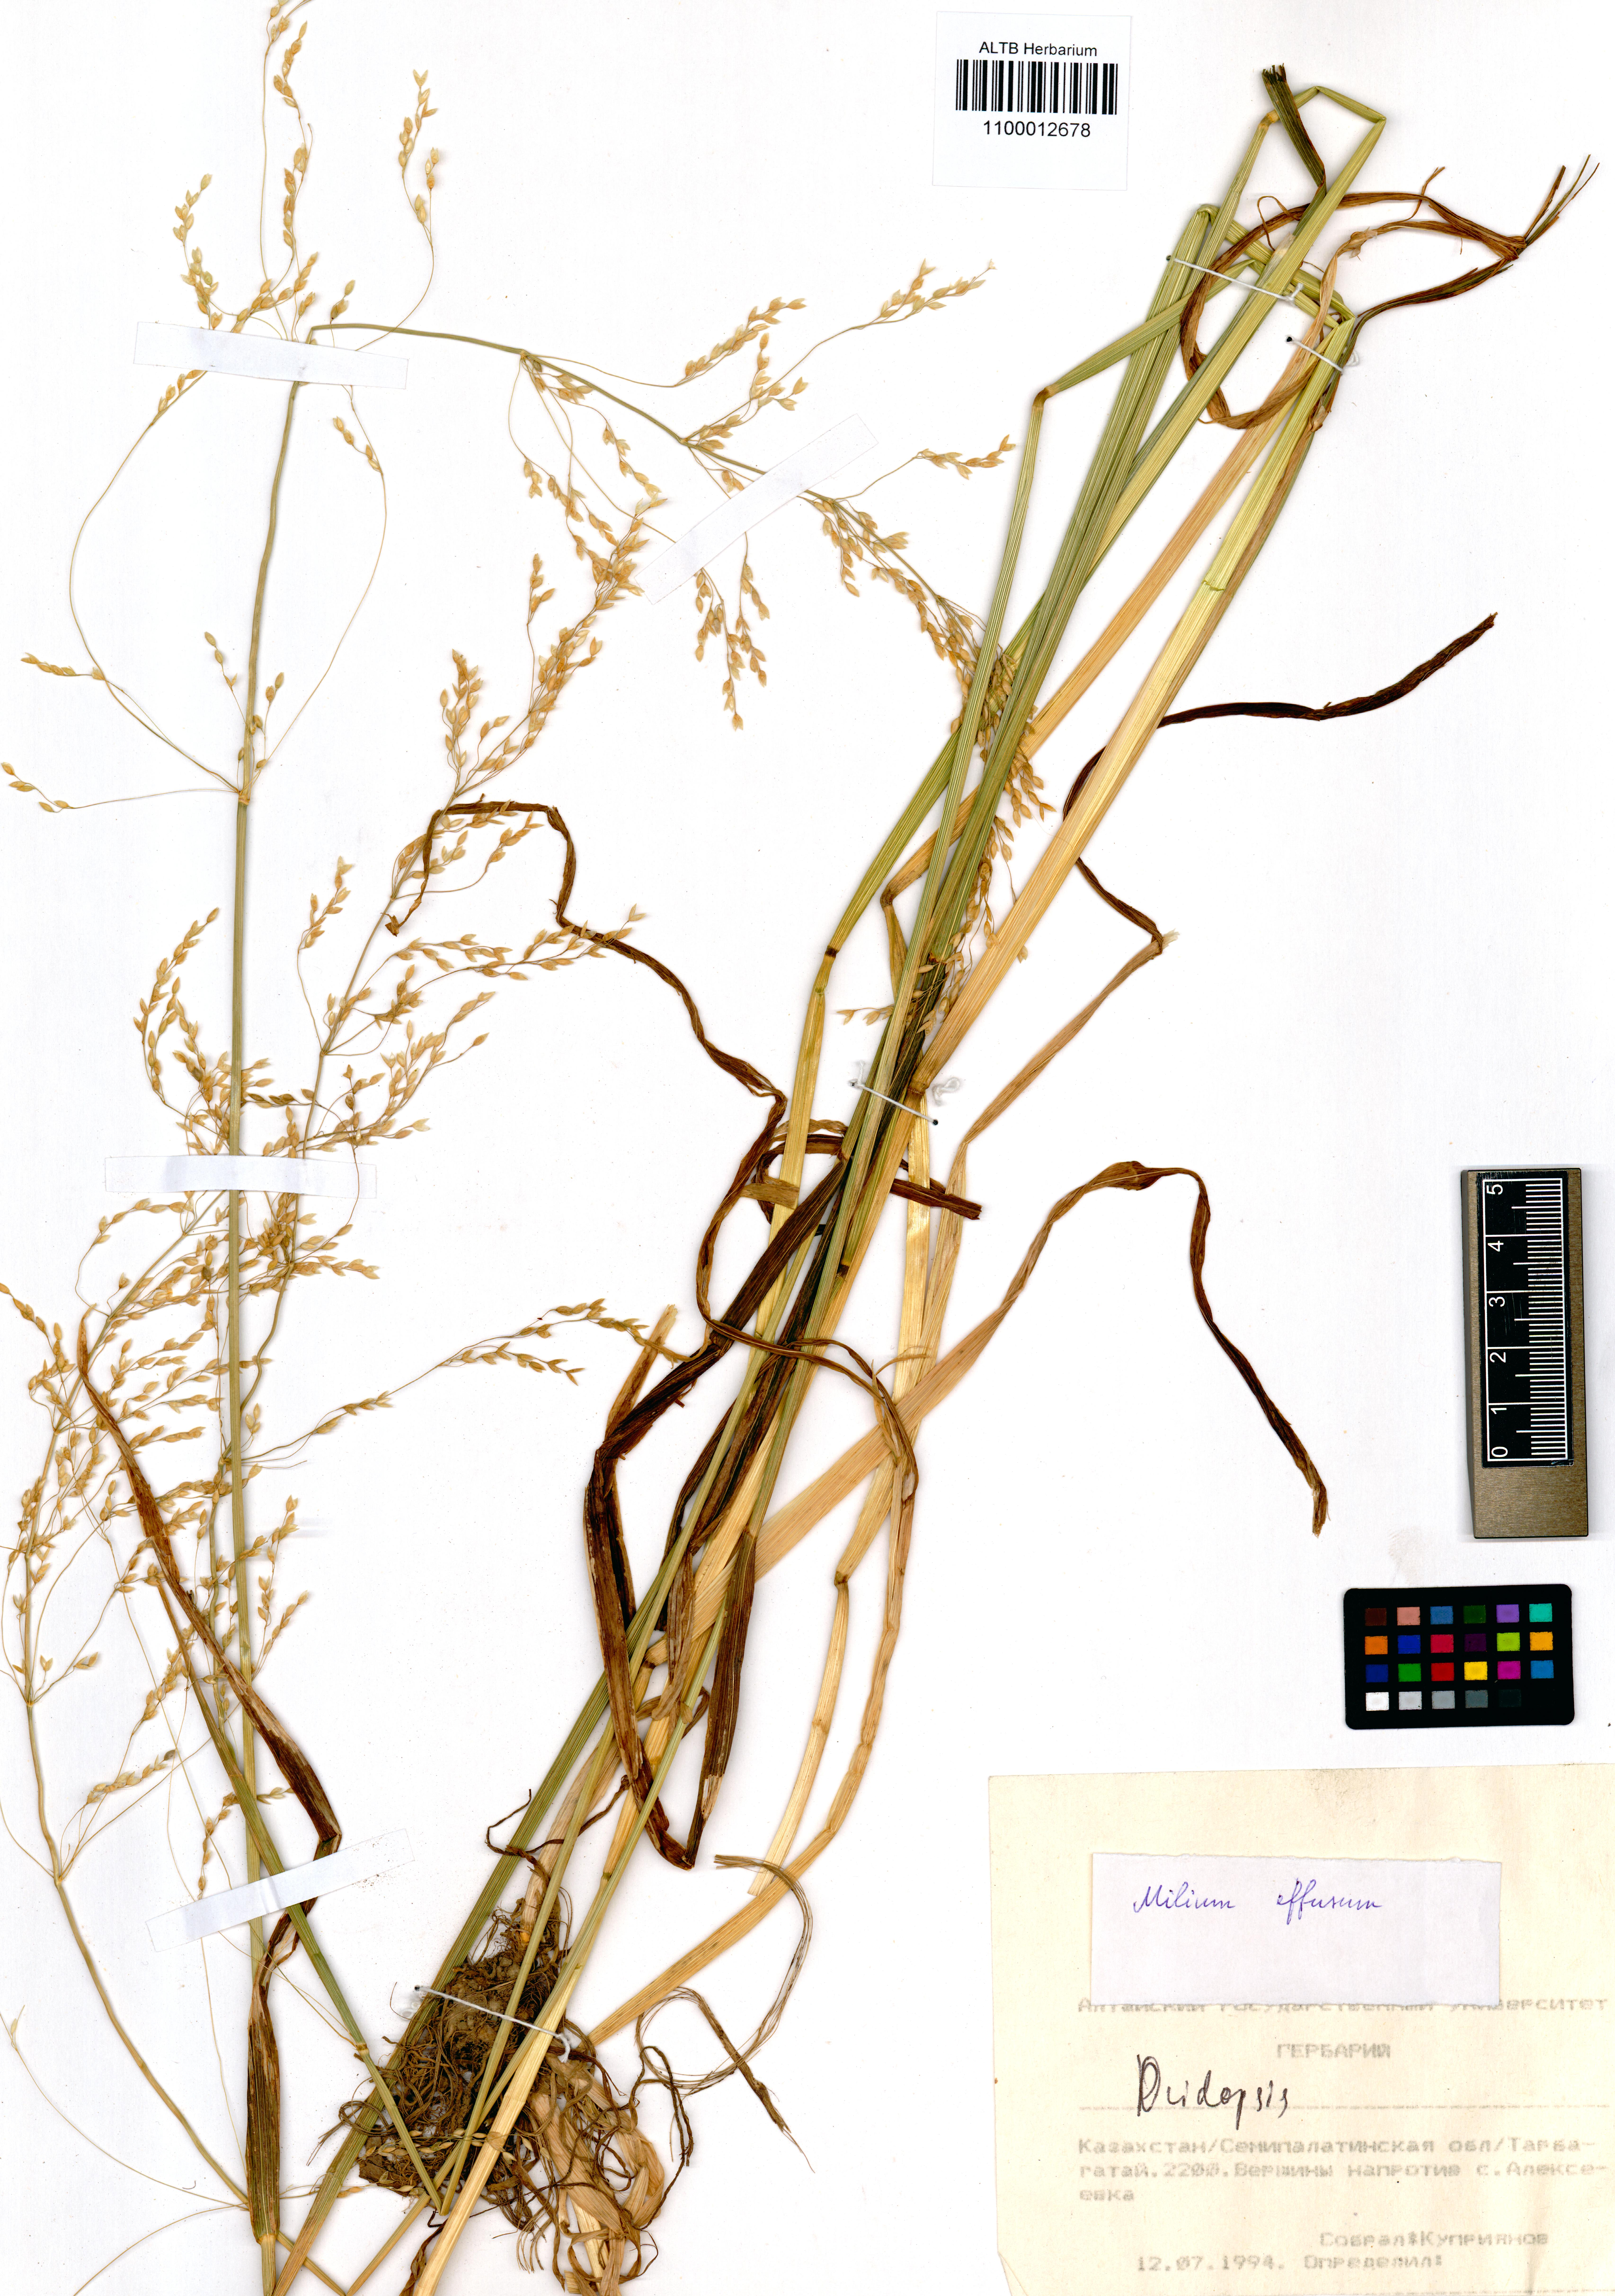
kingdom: Plantae
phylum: Tracheophyta
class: Liliopsida
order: Poales
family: Poaceae
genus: Milium
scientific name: Milium effusum
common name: Wood millet
